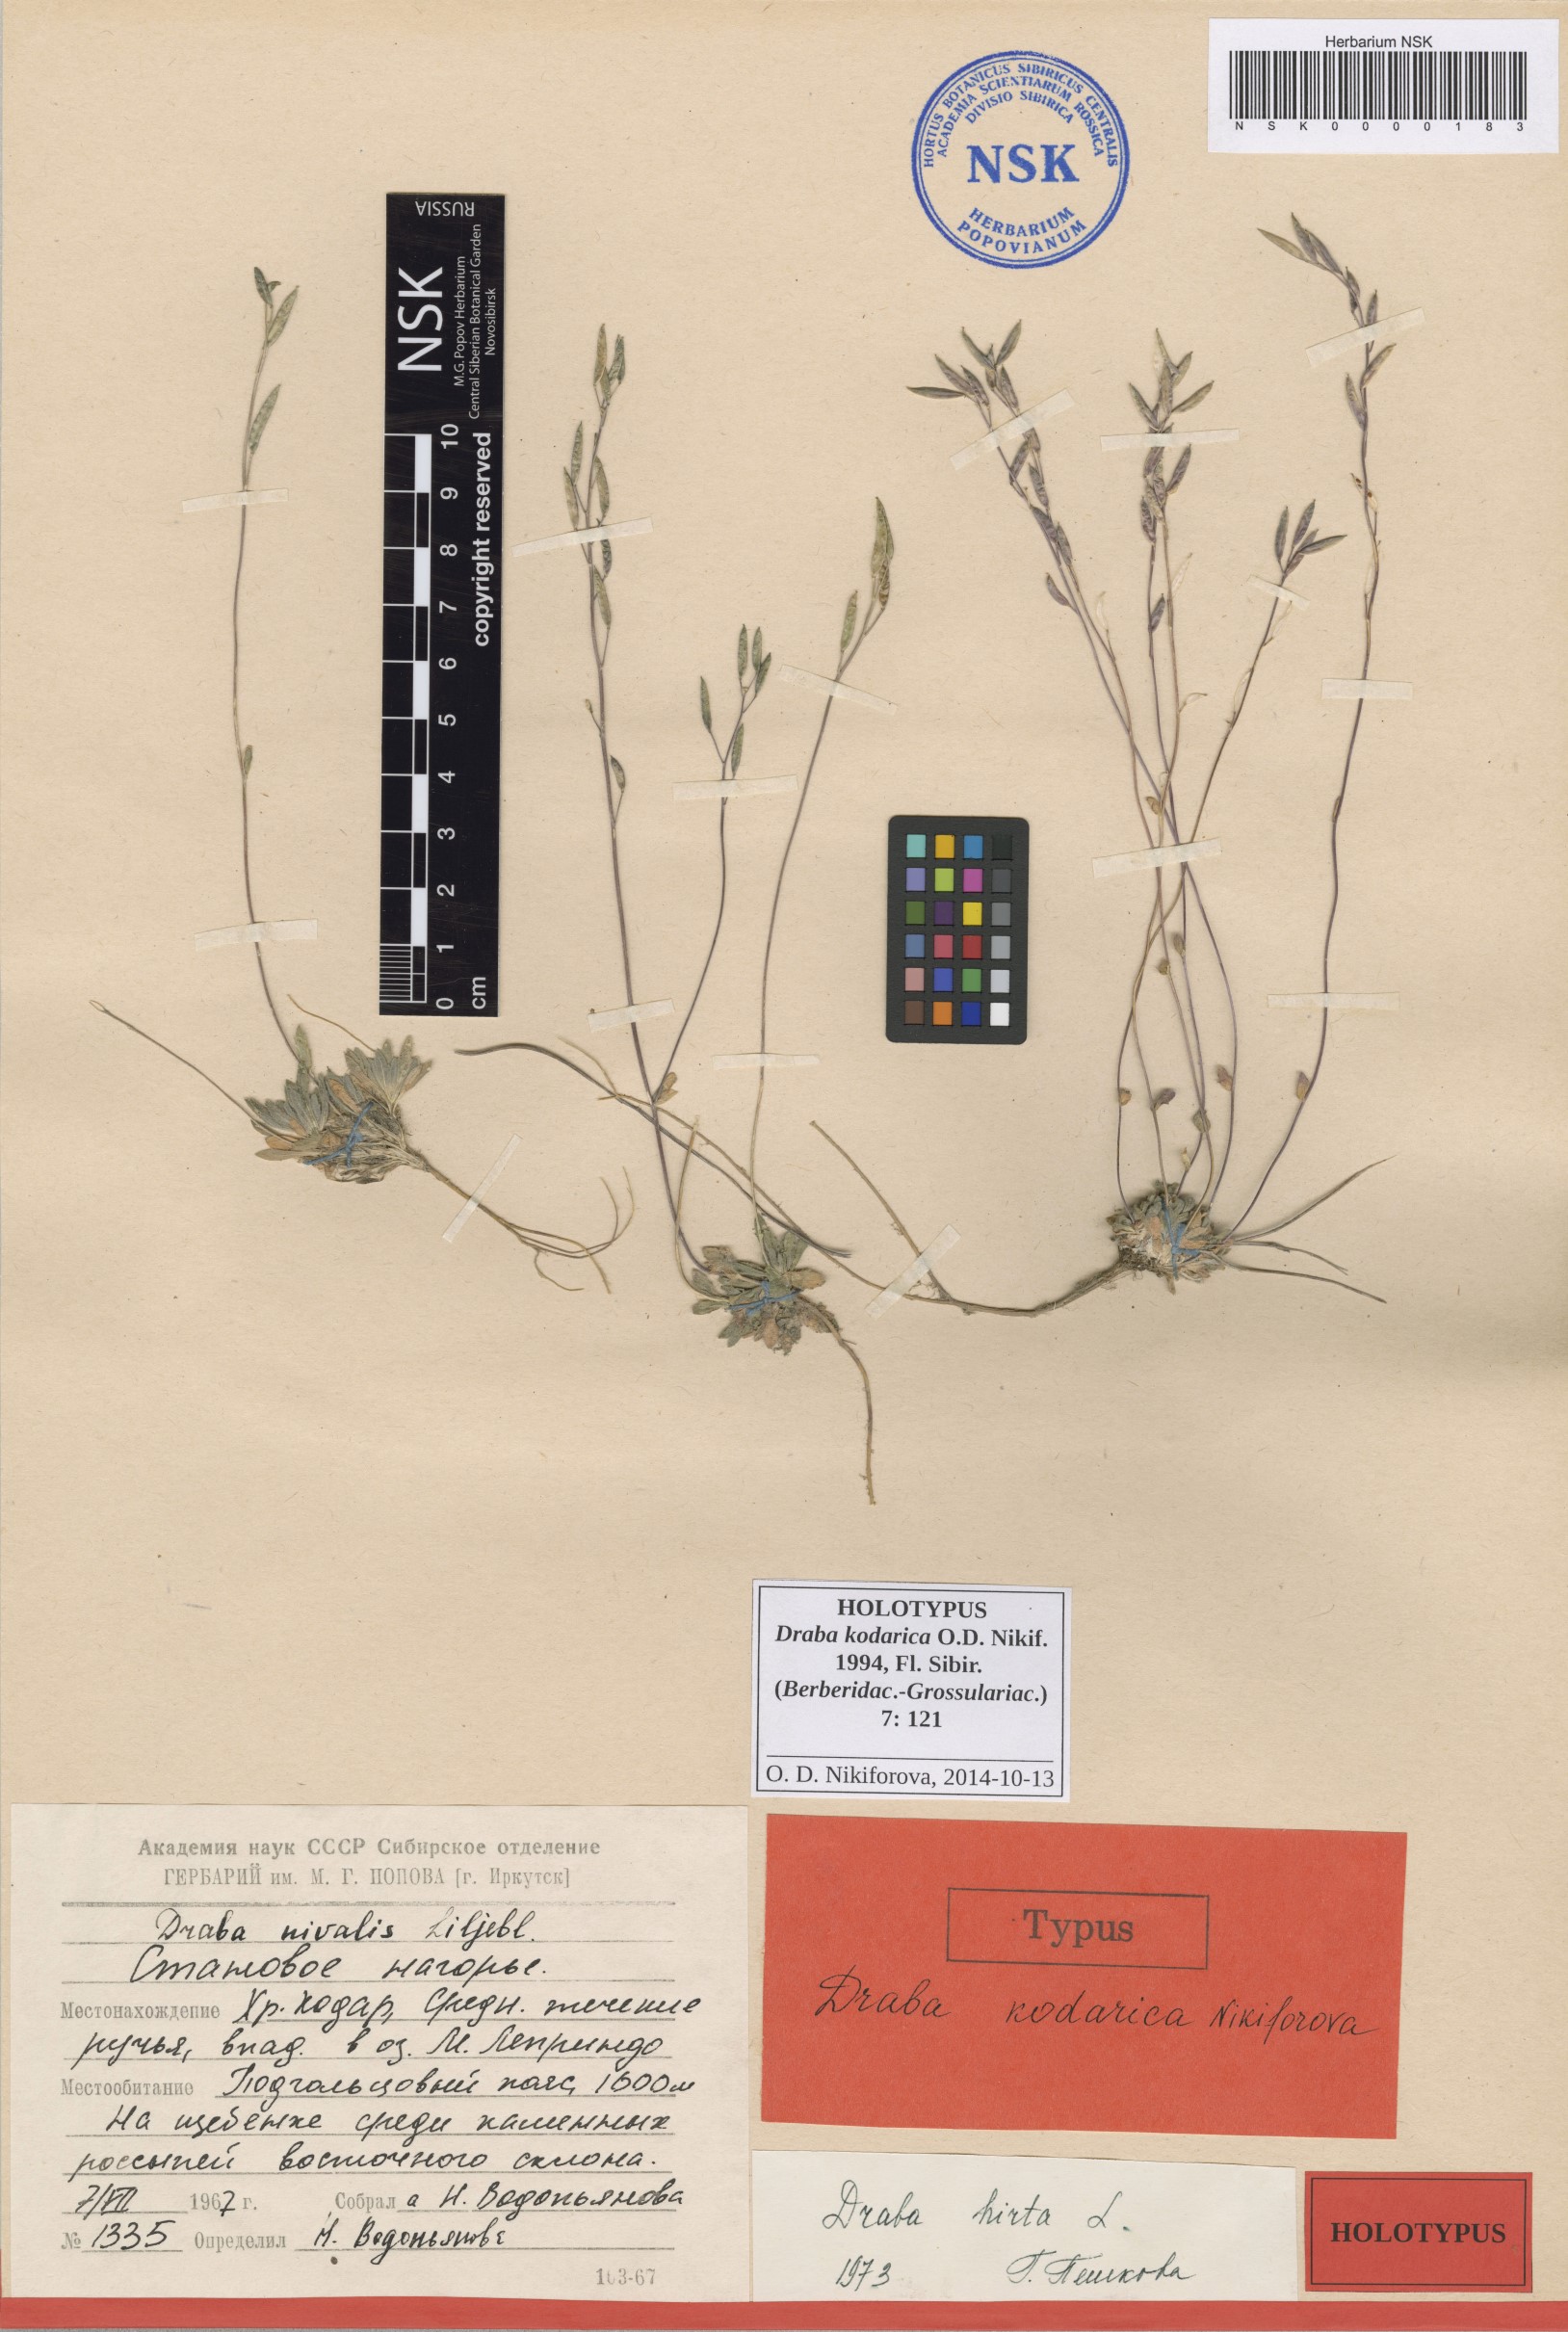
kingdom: Plantae
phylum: Tracheophyta
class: Magnoliopsida
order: Brassicales
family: Brassicaceae
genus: Draba
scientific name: Draba kodarica
